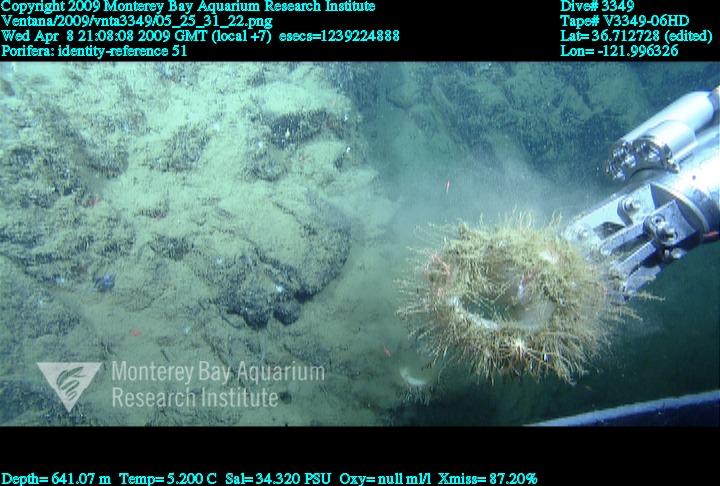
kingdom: Animalia
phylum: Porifera
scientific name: Porifera
